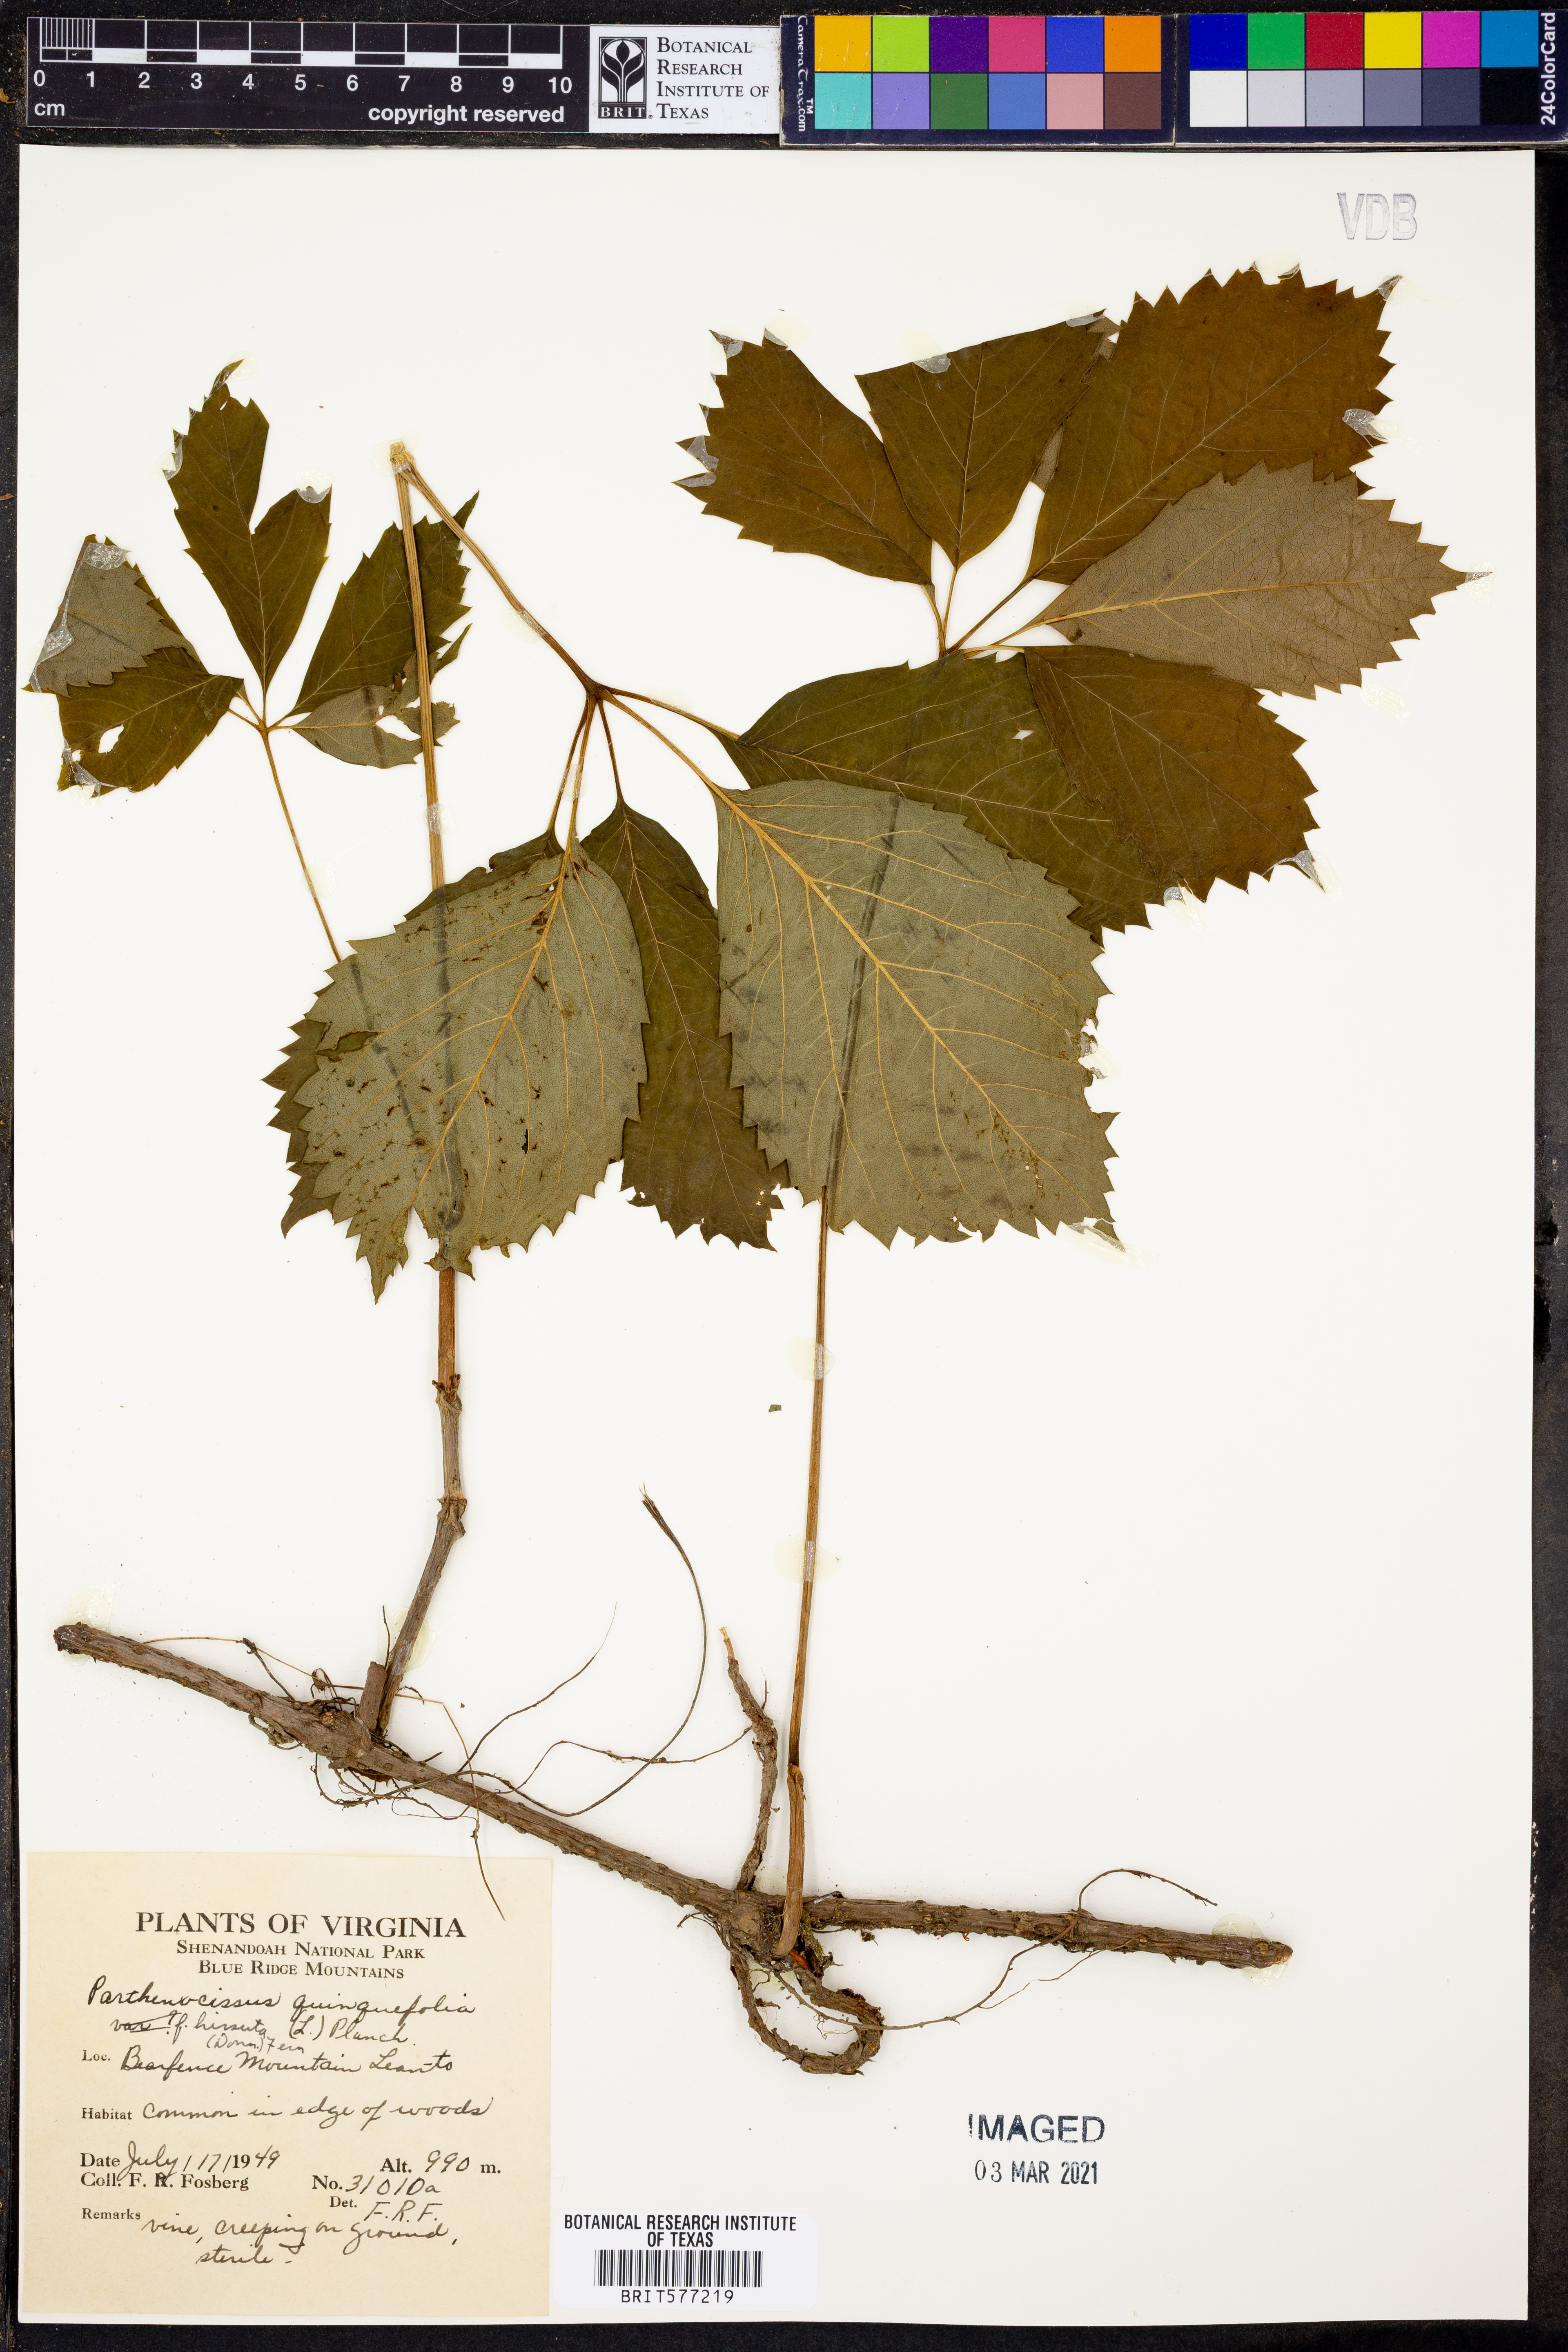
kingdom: Plantae
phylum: Tracheophyta
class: Magnoliopsida
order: Vitales
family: Vitaceae
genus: Parthenocissus
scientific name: Parthenocissus quinquefolia
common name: Virginia-creeper
